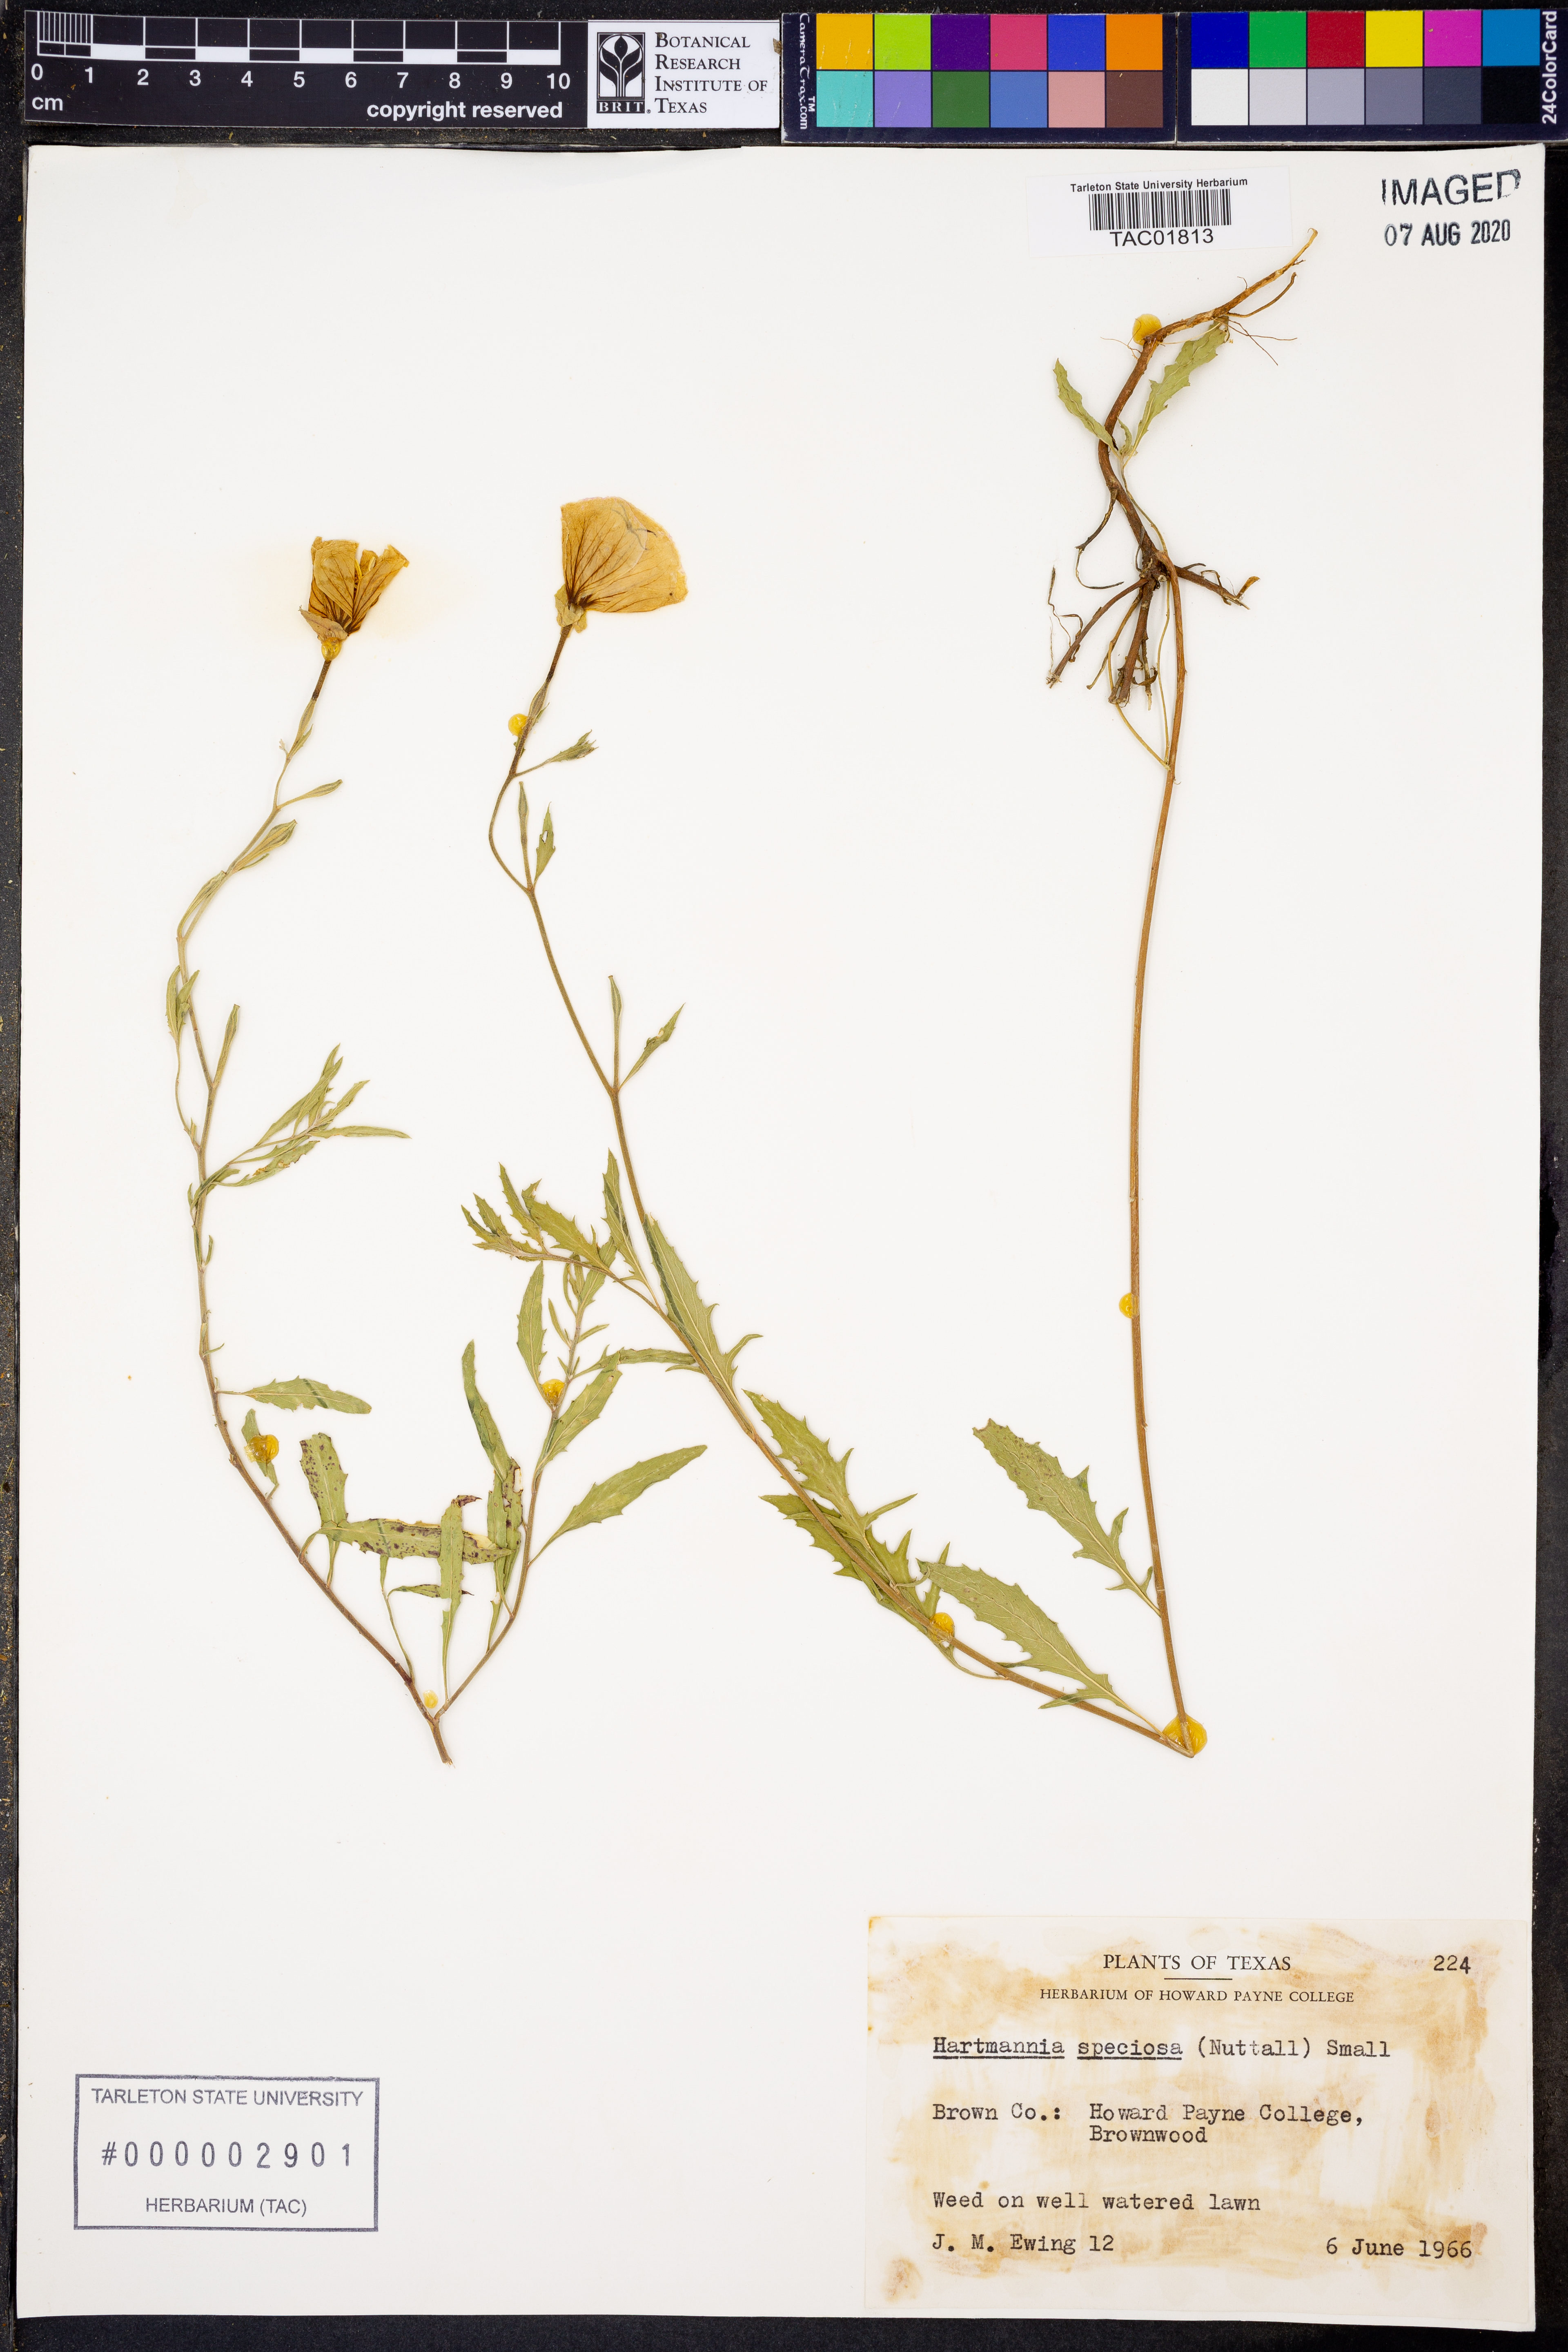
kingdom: Plantae
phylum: Tracheophyta
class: Magnoliopsida
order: Myrtales
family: Onagraceae
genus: Oenothera
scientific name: Oenothera speciosa
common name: White evening-primrose
